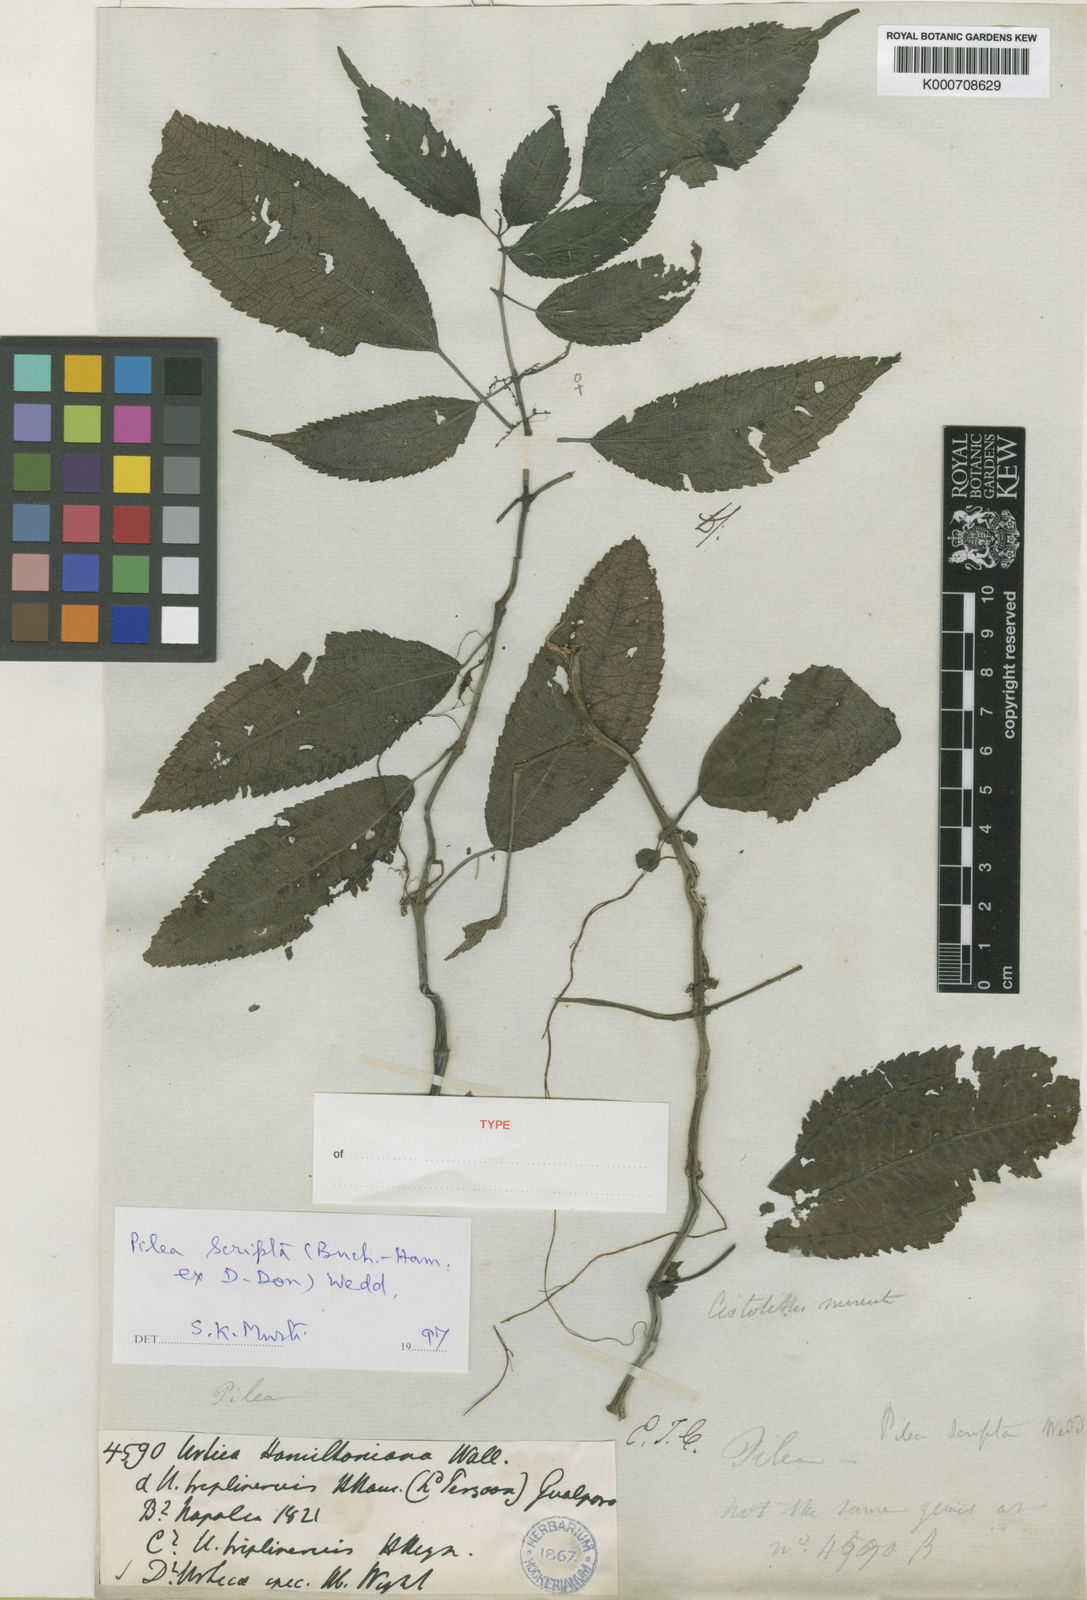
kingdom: Plantae
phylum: Tracheophyta
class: Magnoliopsida
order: Rosales
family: Urticaceae
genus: Pilea
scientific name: Pilea scripta
